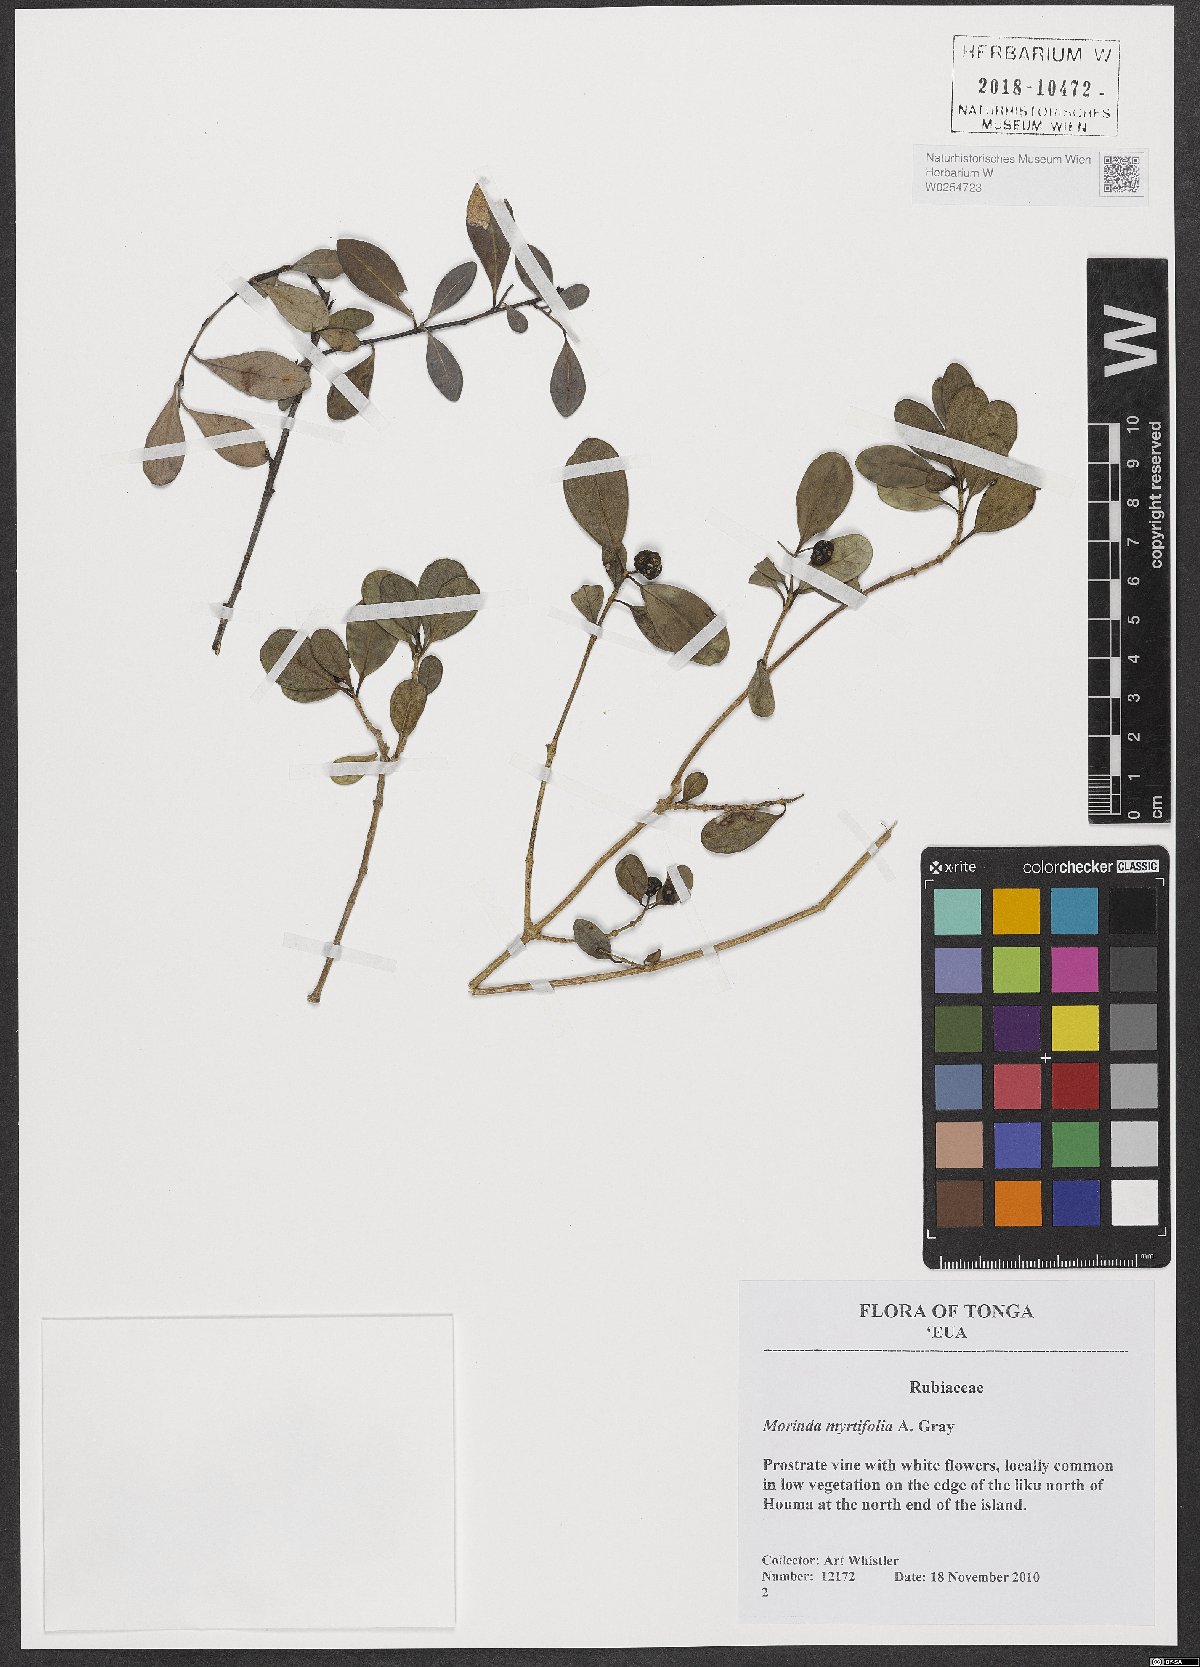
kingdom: Plantae
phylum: Tracheophyta
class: Magnoliopsida
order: Gentianales
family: Rubiaceae
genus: Gynochthodes
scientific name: Gynochthodes myrtifolia
